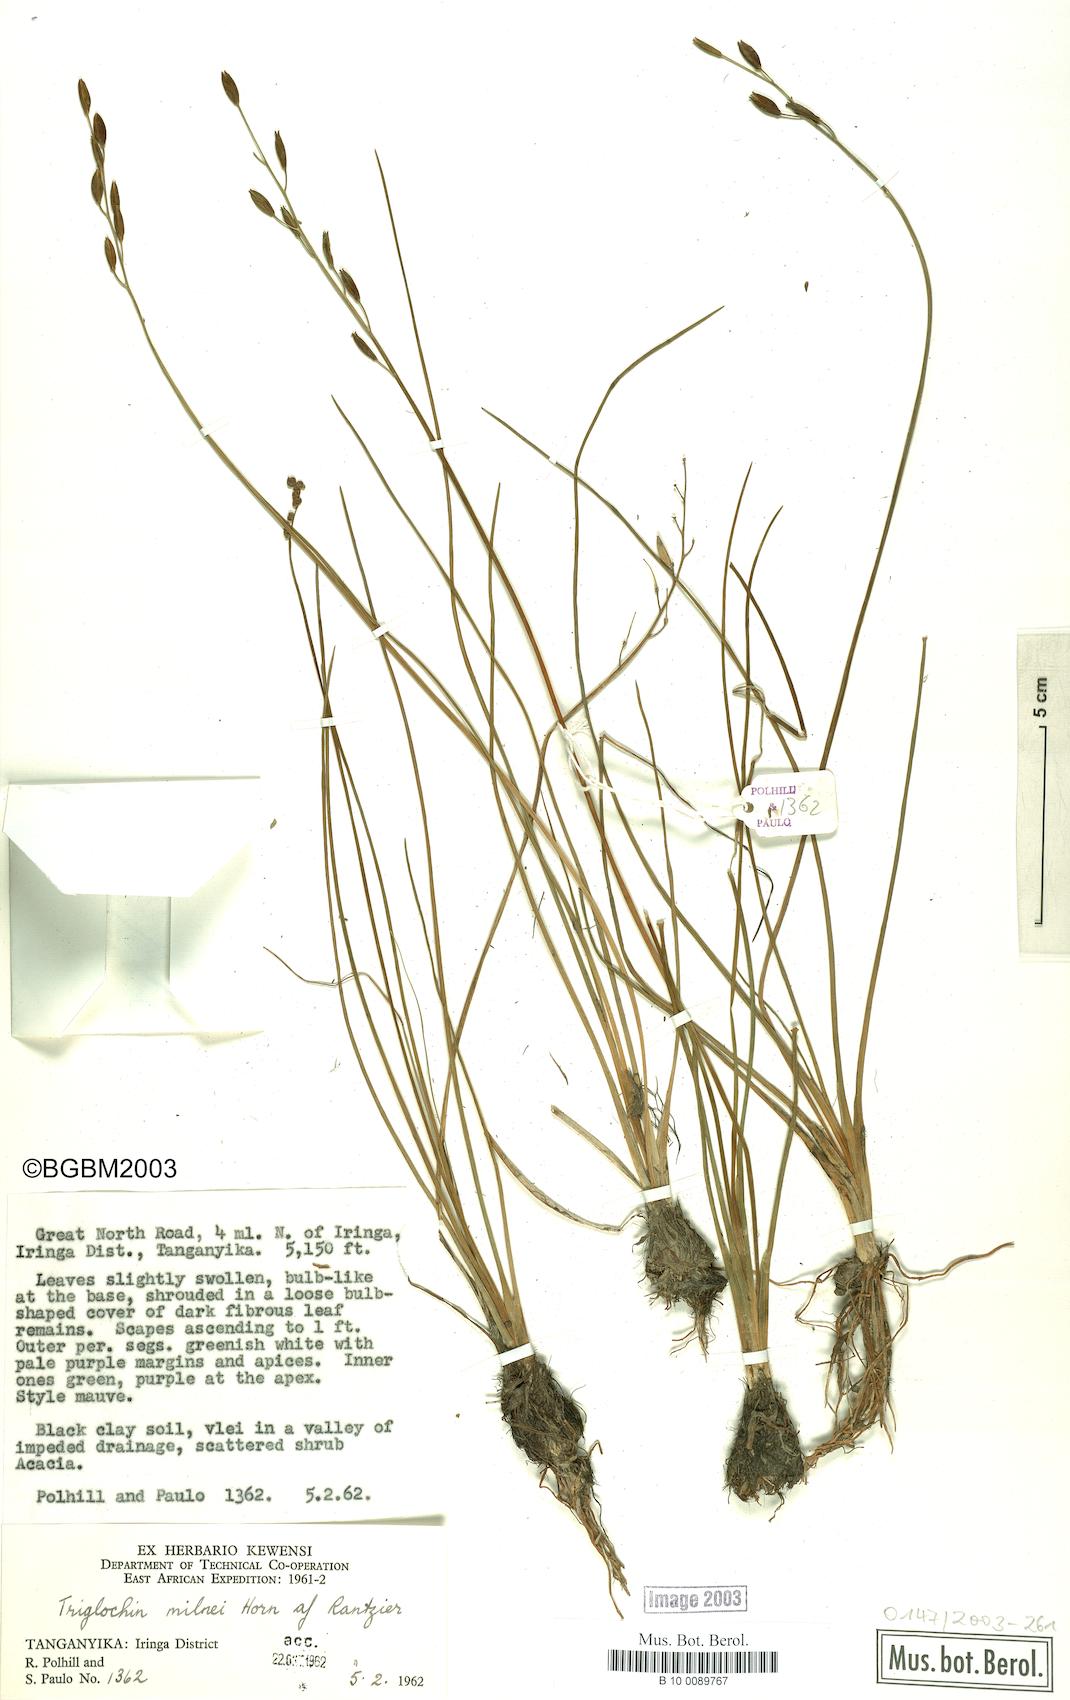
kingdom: Plantae
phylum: Tracheophyta
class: Liliopsida
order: Alismatales
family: Juncaginaceae
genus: Triglochin
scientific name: Triglochin milnei
